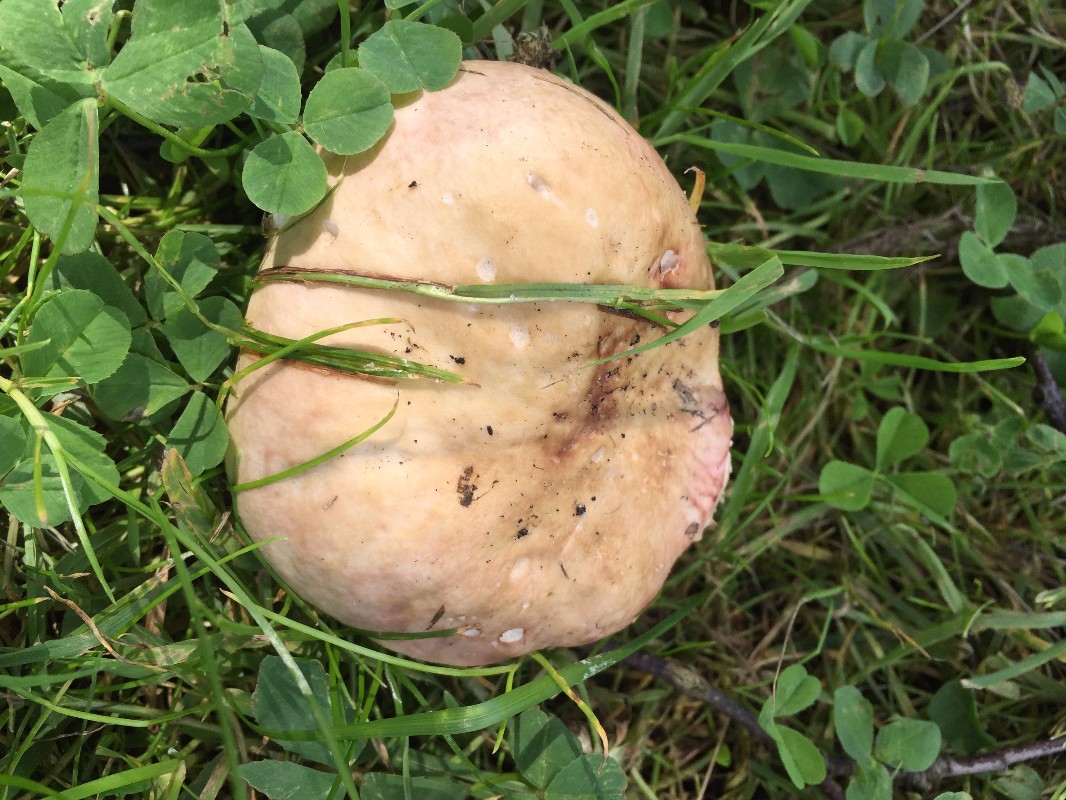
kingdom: Fungi
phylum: Basidiomycota
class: Agaricomycetes
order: Russulales
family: Russulaceae
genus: Russula
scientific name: Russula depallens
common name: falmende skørhat
